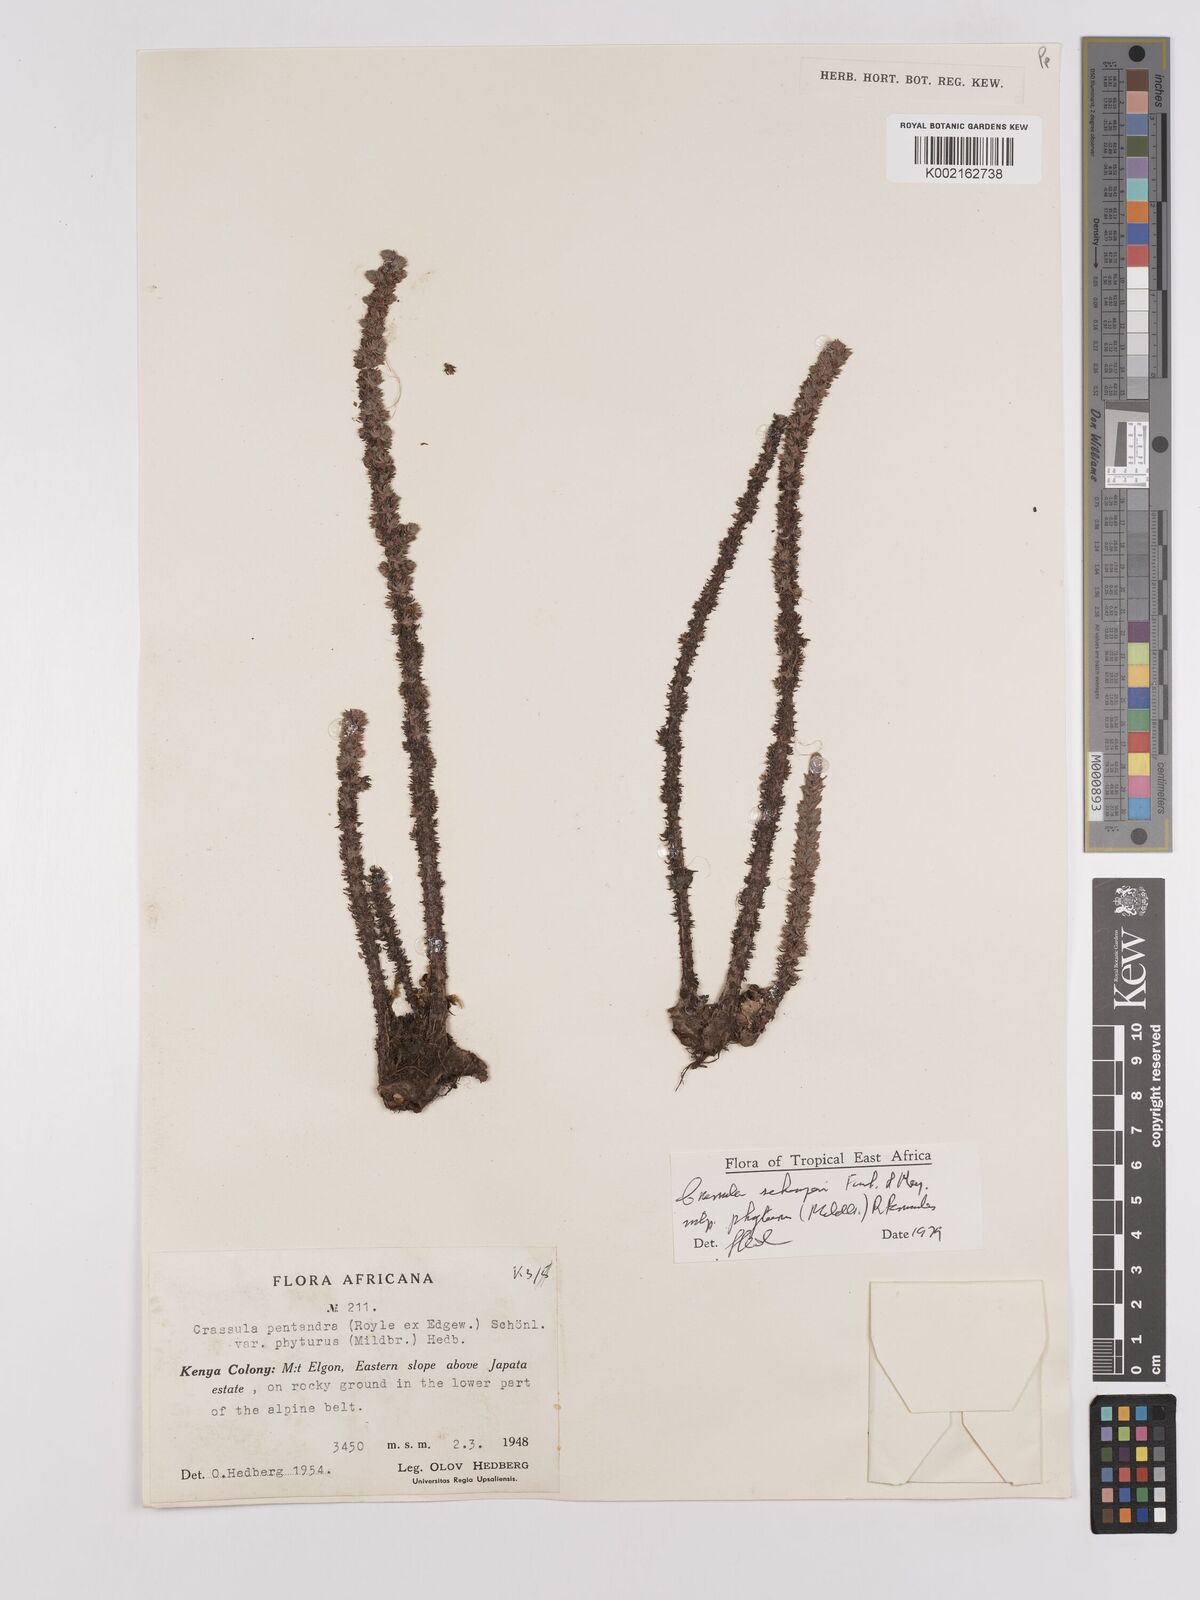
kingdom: Plantae
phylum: Tracheophyta
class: Magnoliopsida
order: Saxifragales
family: Crassulaceae
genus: Crassula
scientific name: Crassula schimperi
